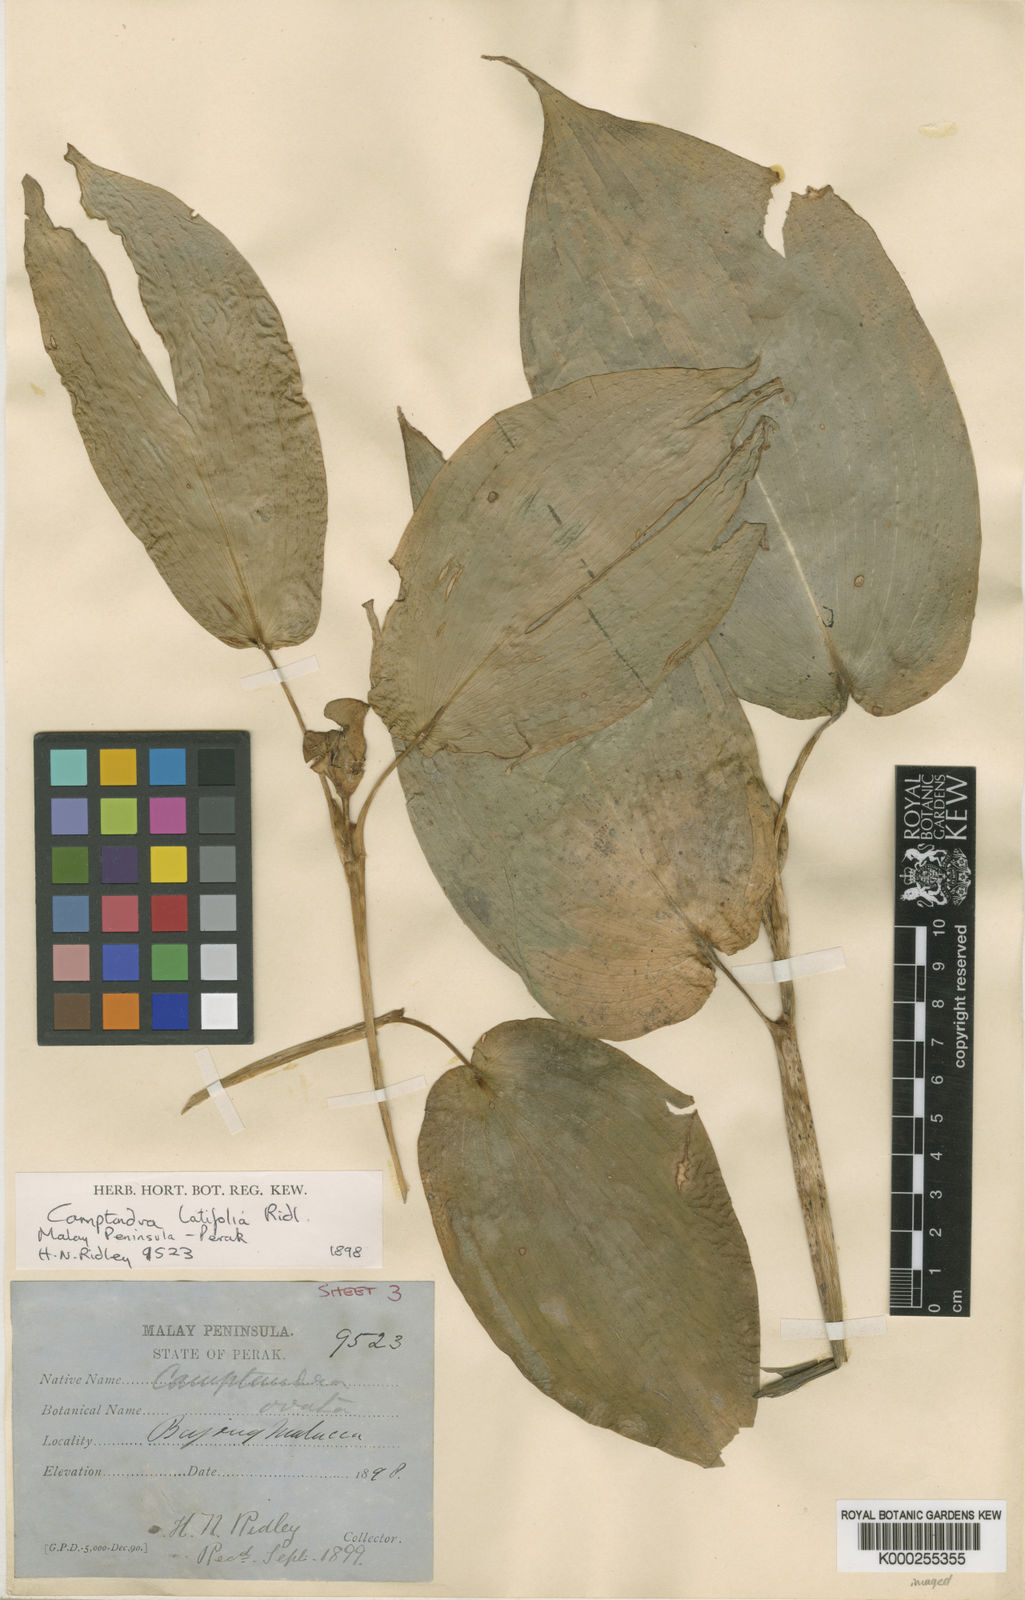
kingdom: Plantae
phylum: Tracheophyta
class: Liliopsida
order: Zingiberales
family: Zingiberaceae
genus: Camptandra
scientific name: Camptandra latifolia
